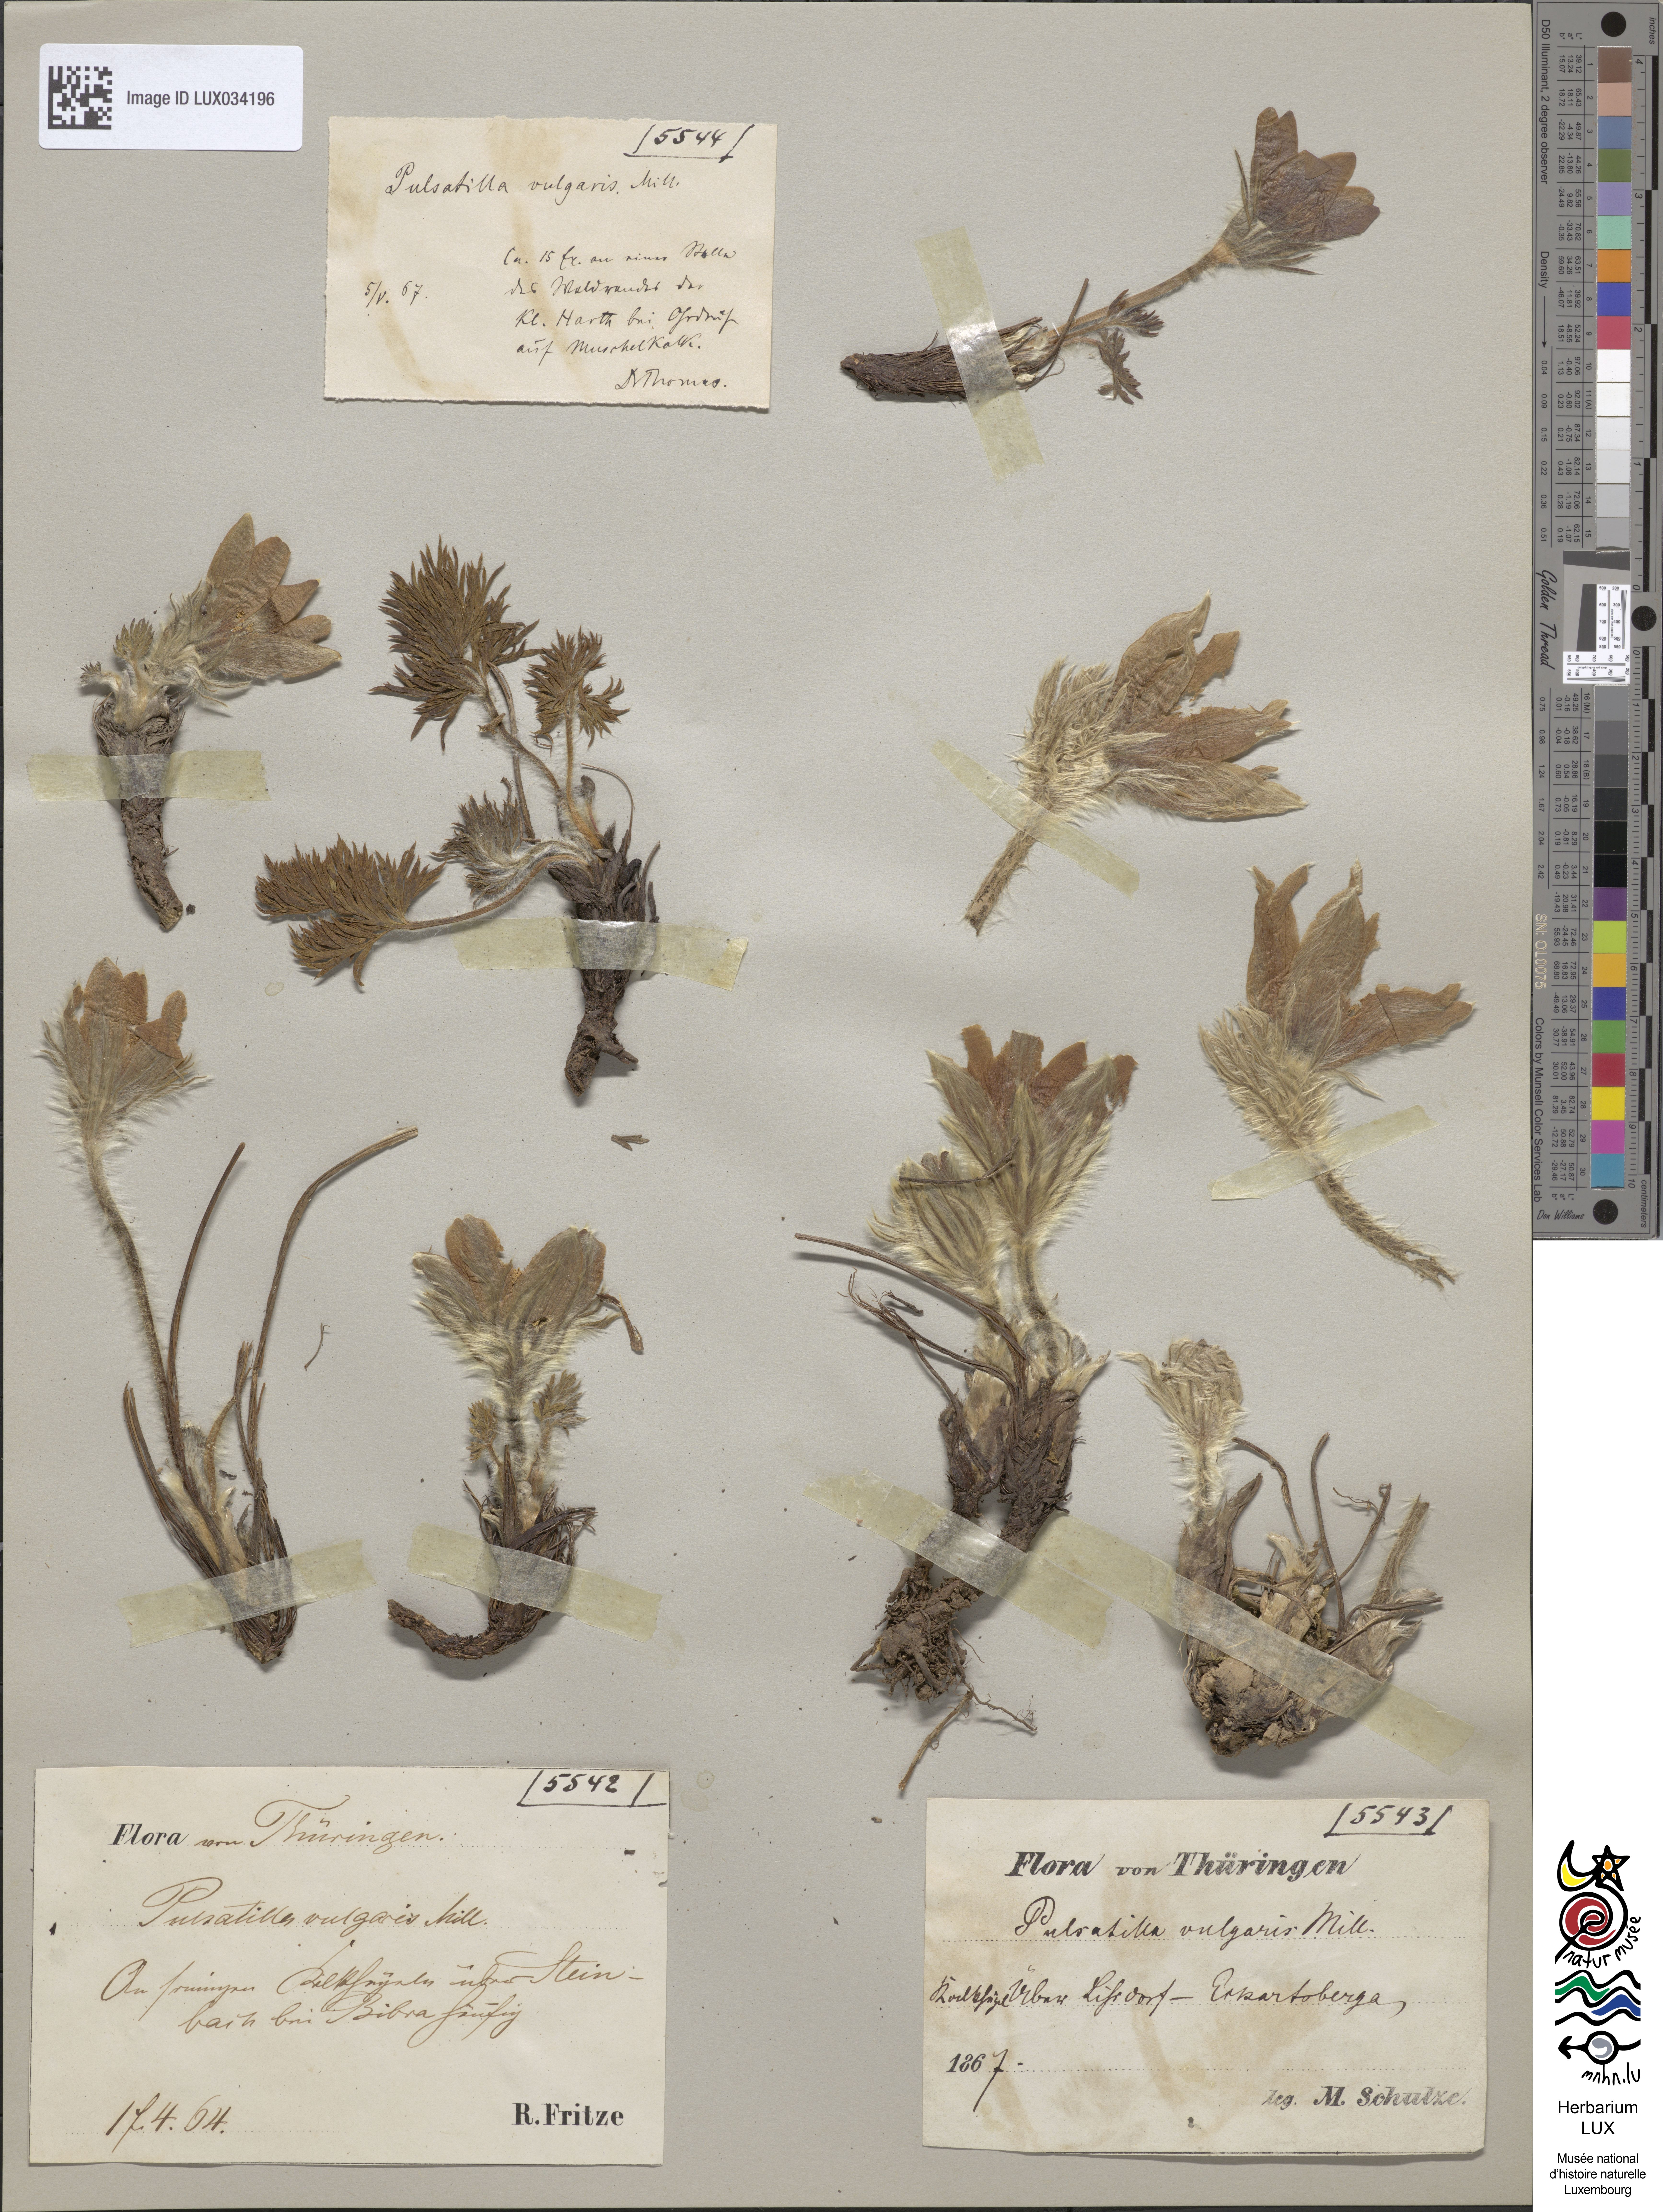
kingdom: Plantae
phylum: Tracheophyta
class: Magnoliopsida
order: Ranunculales
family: Ranunculaceae
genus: Pulsatilla
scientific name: Pulsatilla vulgaris
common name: Pasqueflower
